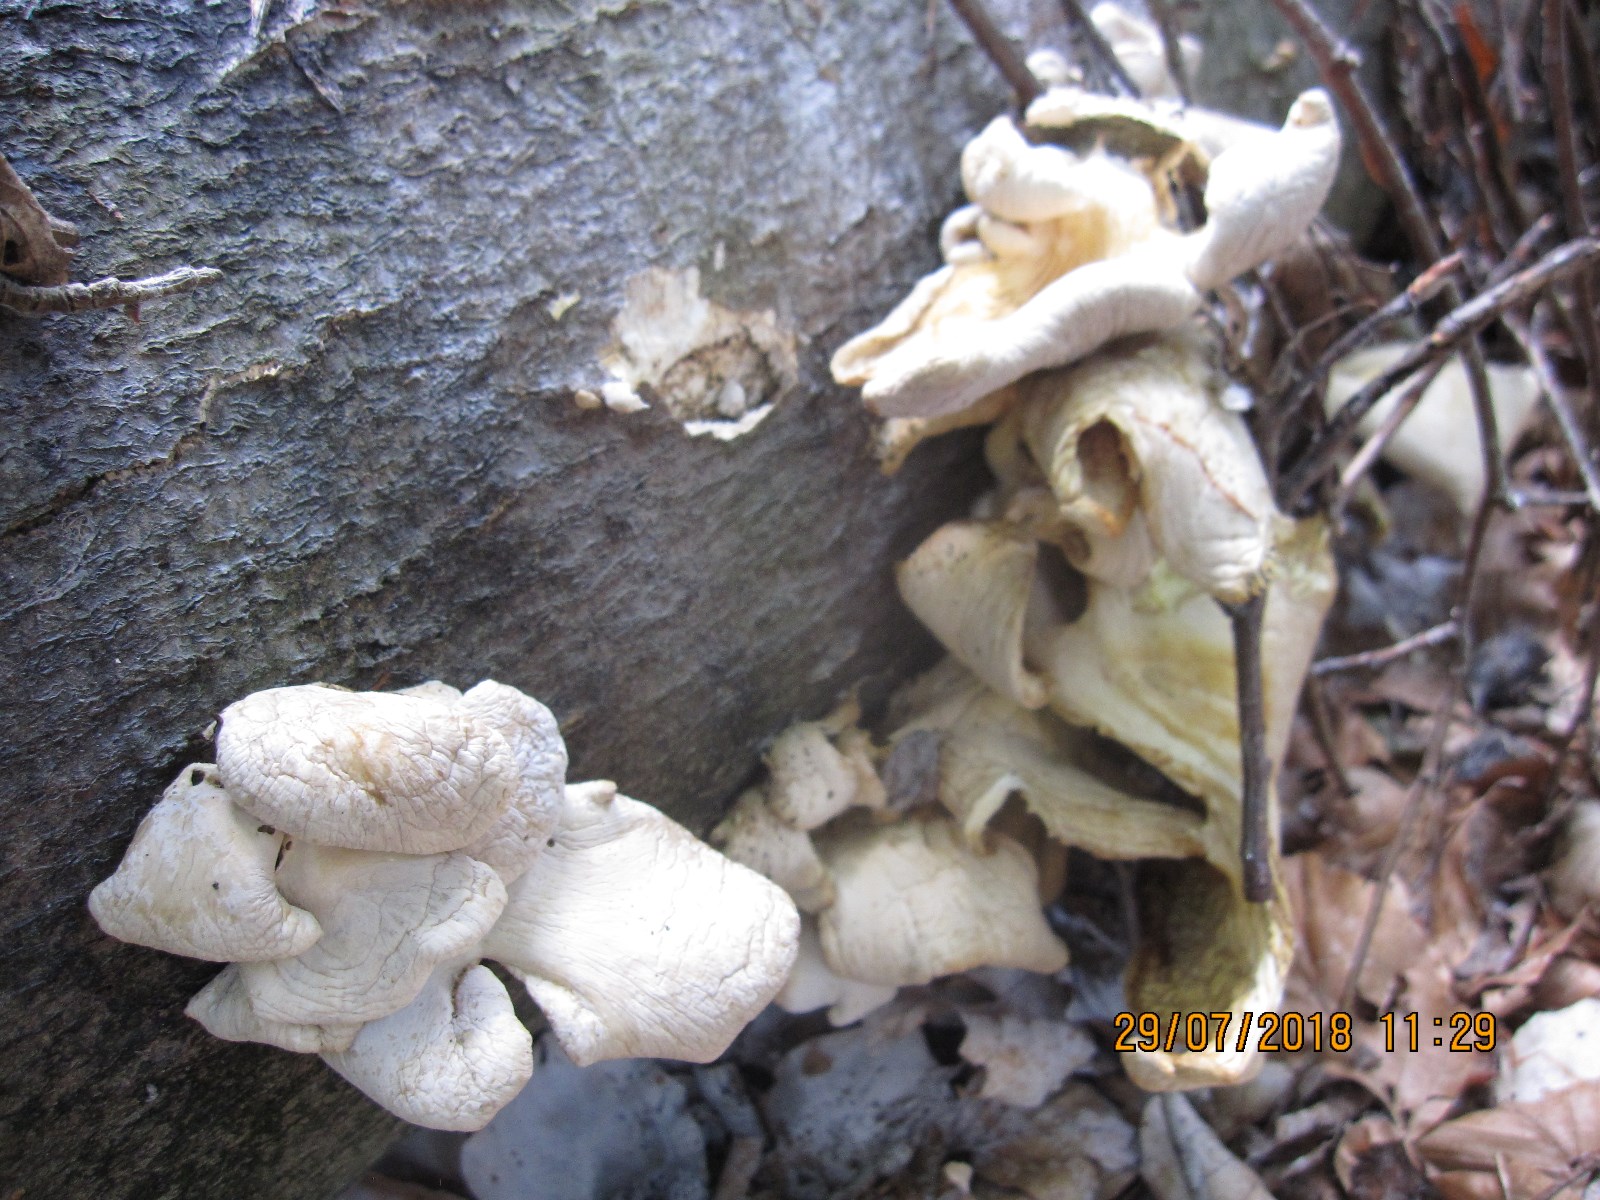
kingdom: Fungi
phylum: Basidiomycota
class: Agaricomycetes
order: Agaricales
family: Pleurotaceae
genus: Pleurotus
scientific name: Pleurotus pulmonarius
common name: sommer-østershat
